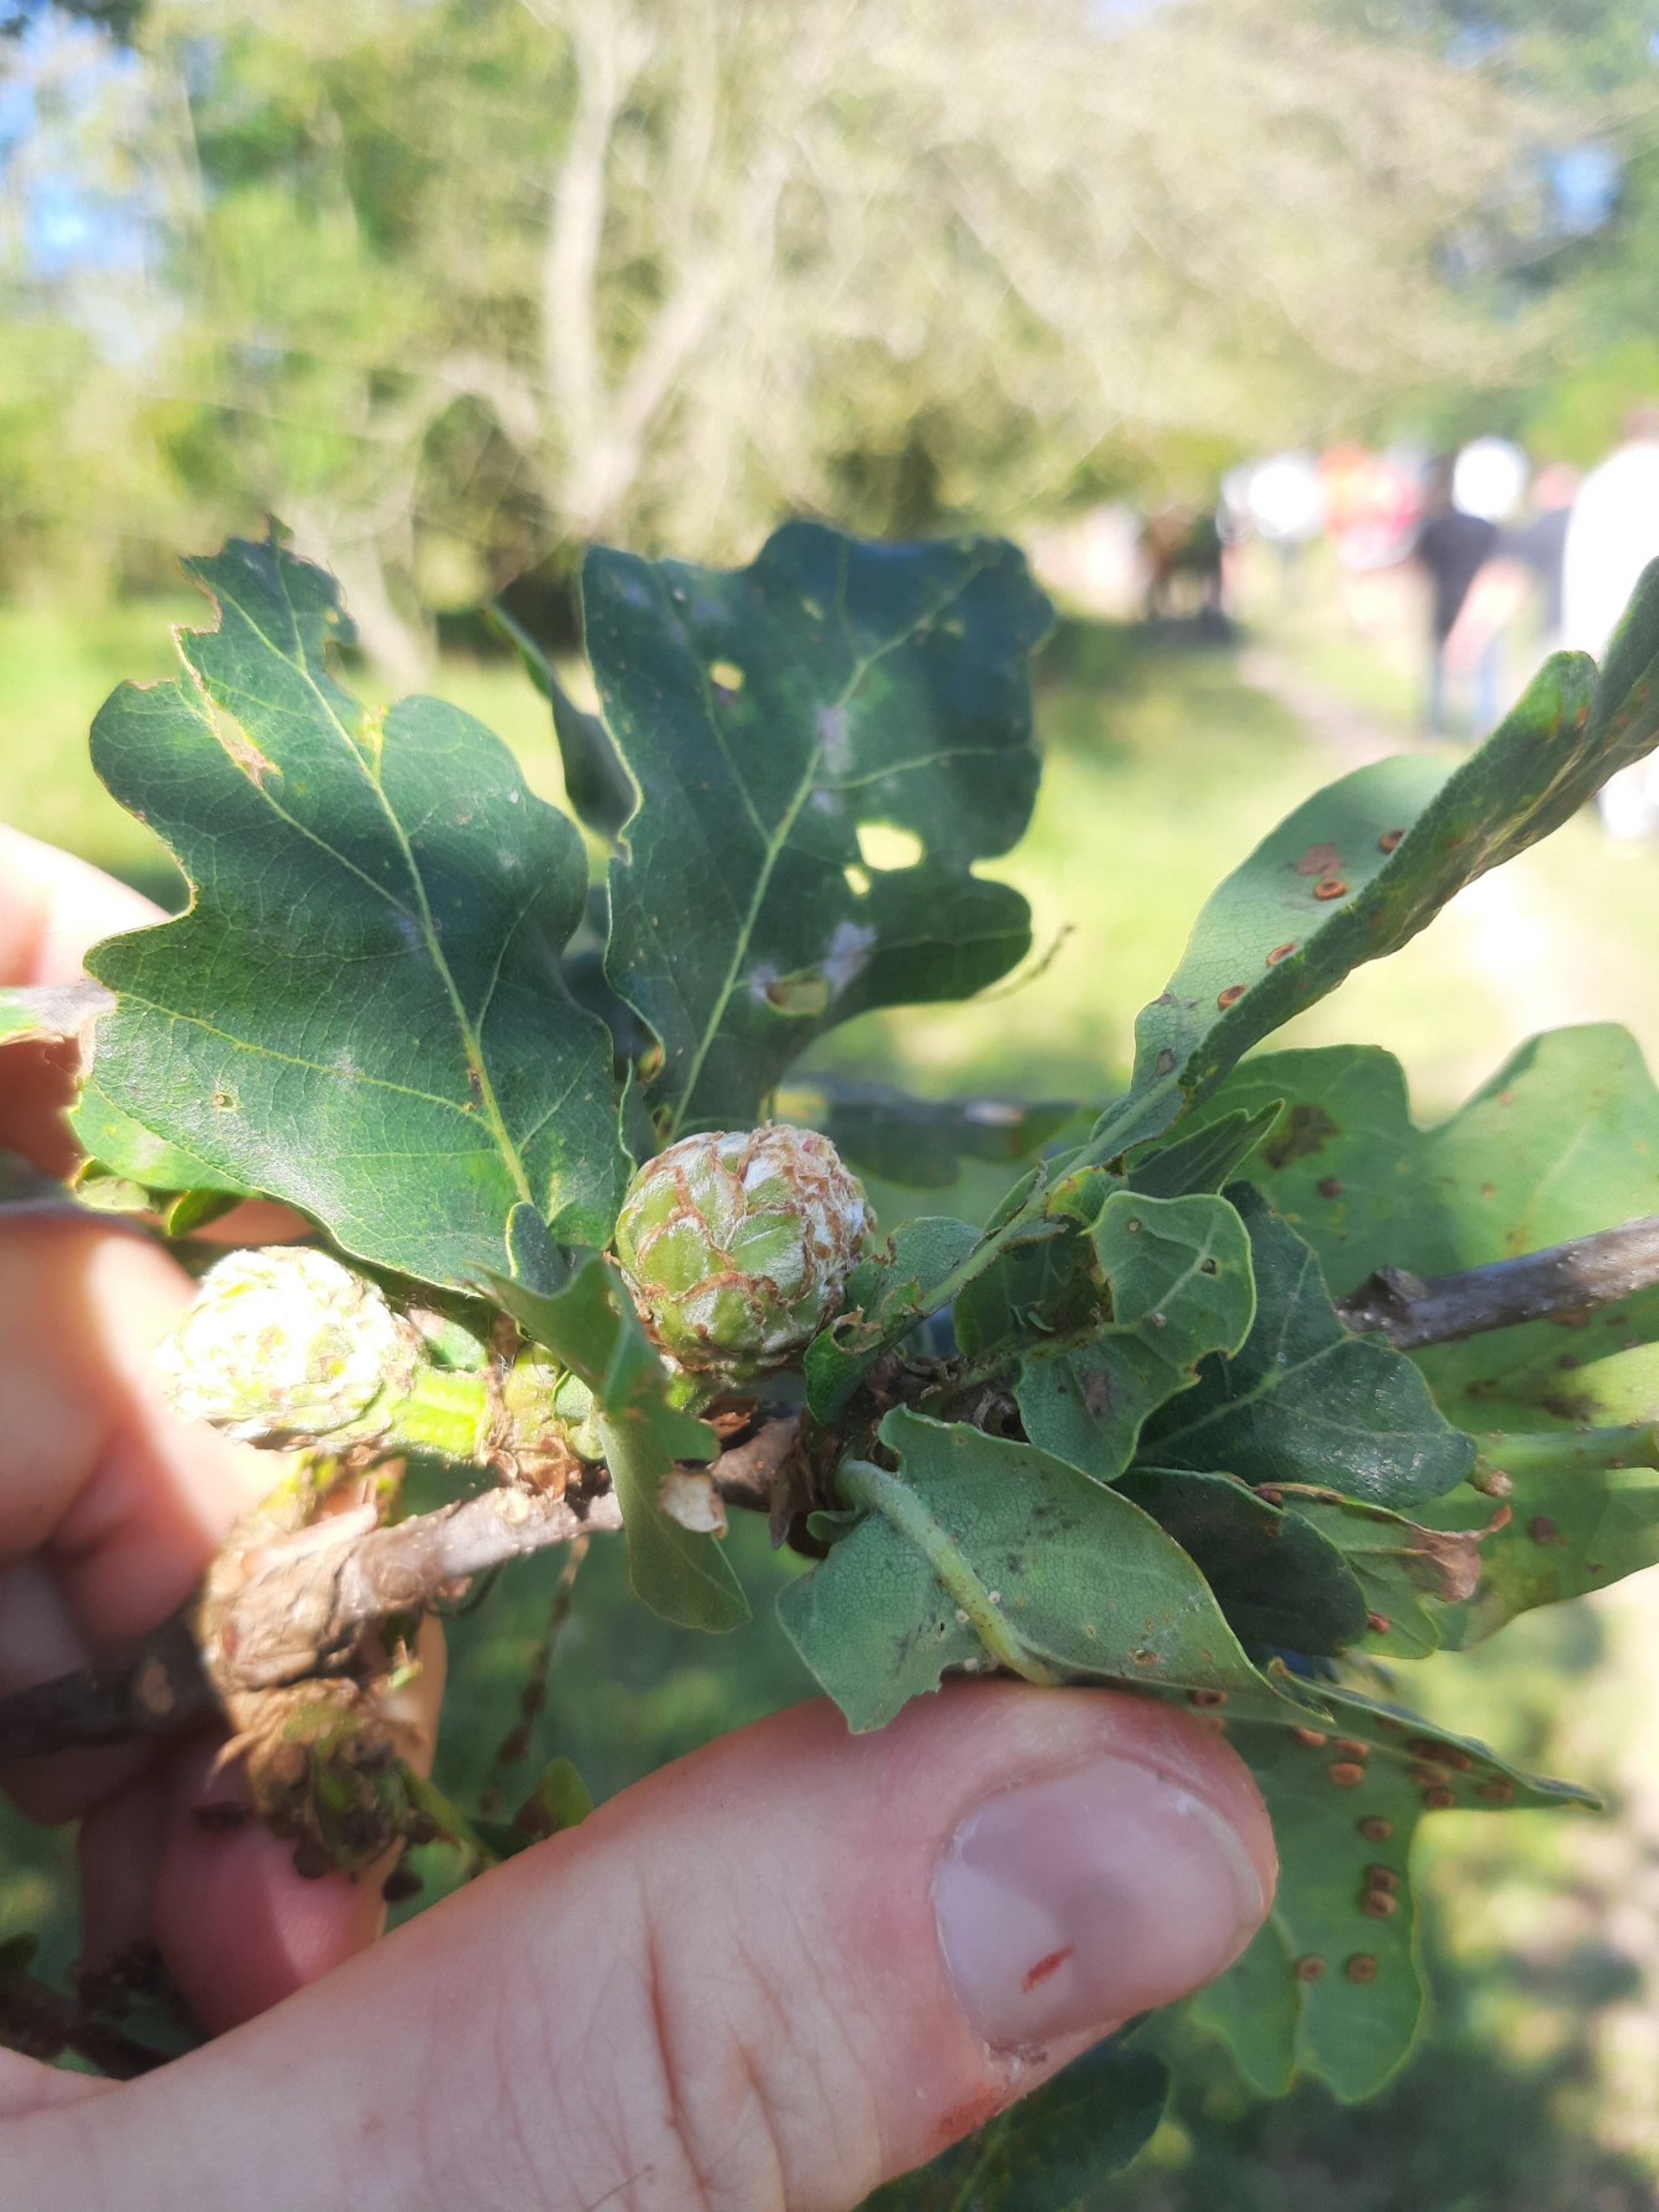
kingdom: Animalia
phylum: Arthropoda
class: Insecta
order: Hymenoptera
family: Cynipidae
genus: Andricus
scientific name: Andricus foecundatrix
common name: Artiskokgalhveps
